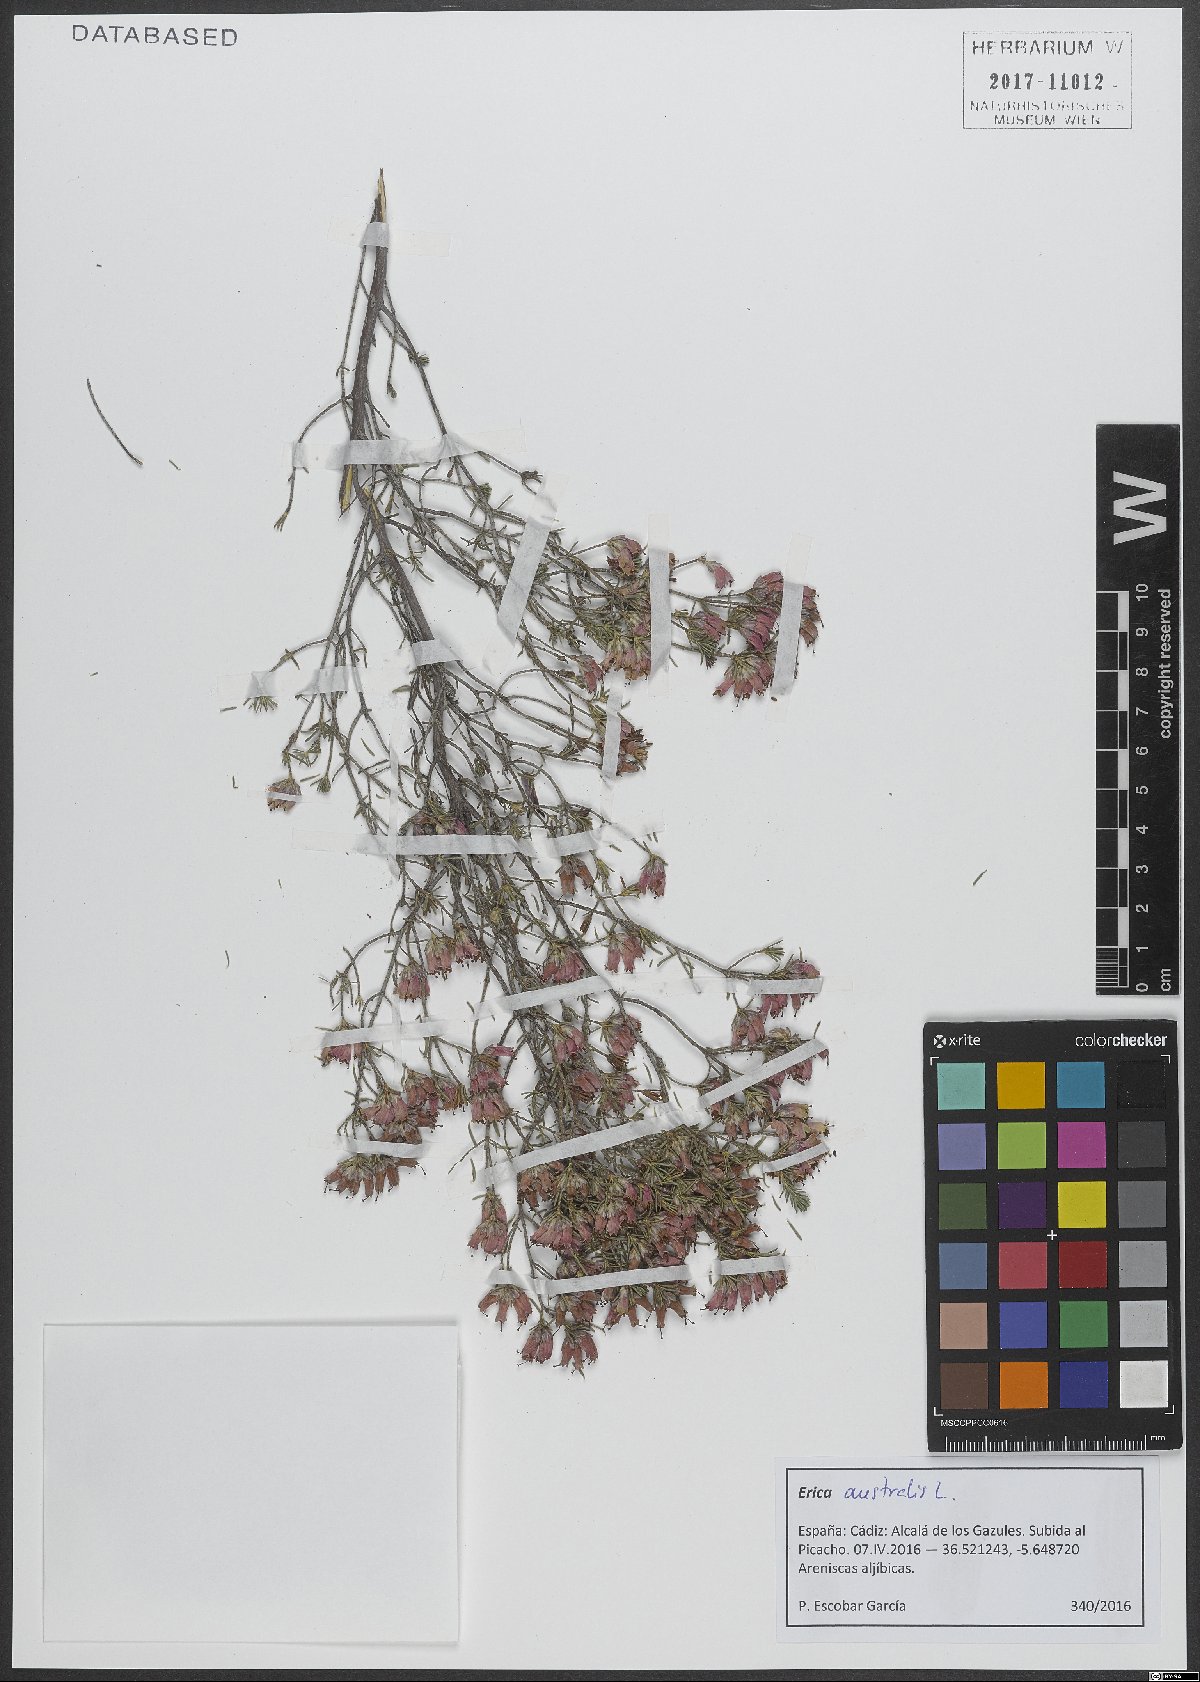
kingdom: Plantae
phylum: Tracheophyta
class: Magnoliopsida
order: Ericales
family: Ericaceae
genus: Erica
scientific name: Erica australis
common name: Spanish heath
